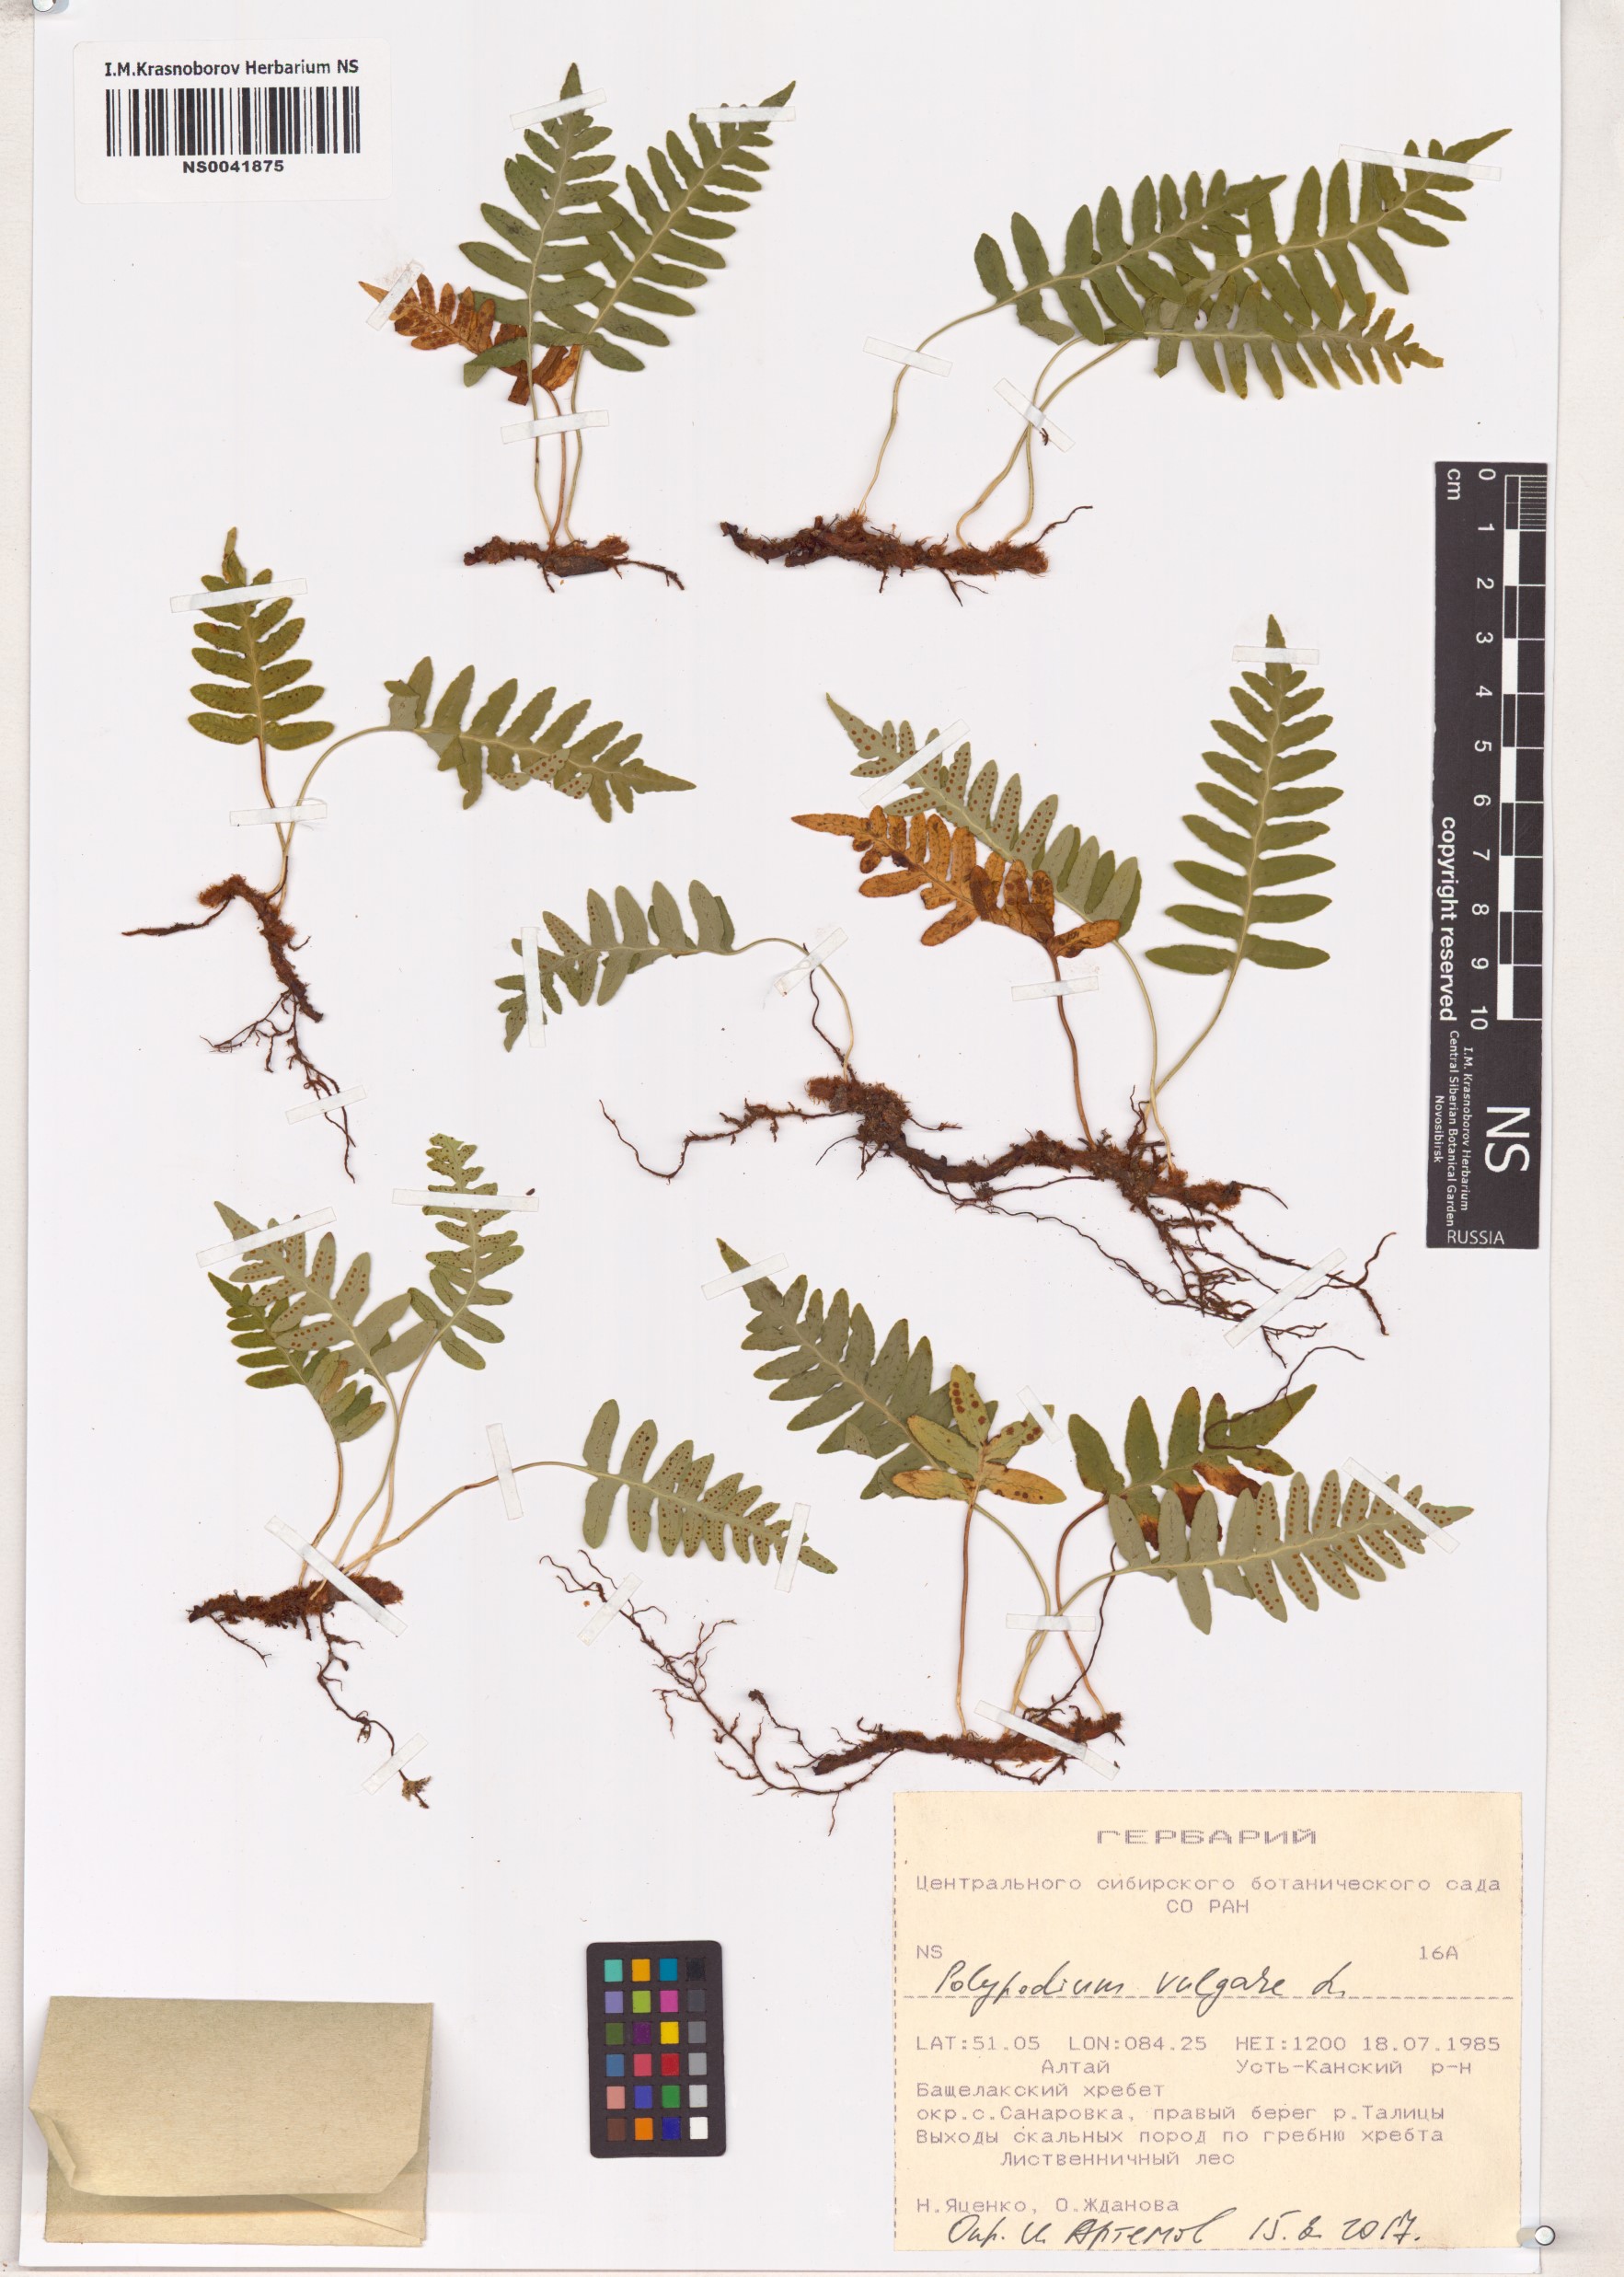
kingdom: Plantae
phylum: Tracheophyta
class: Polypodiopsida
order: Polypodiales
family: Polypodiaceae
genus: Polypodium
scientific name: Polypodium vulgare
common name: Common polypody
